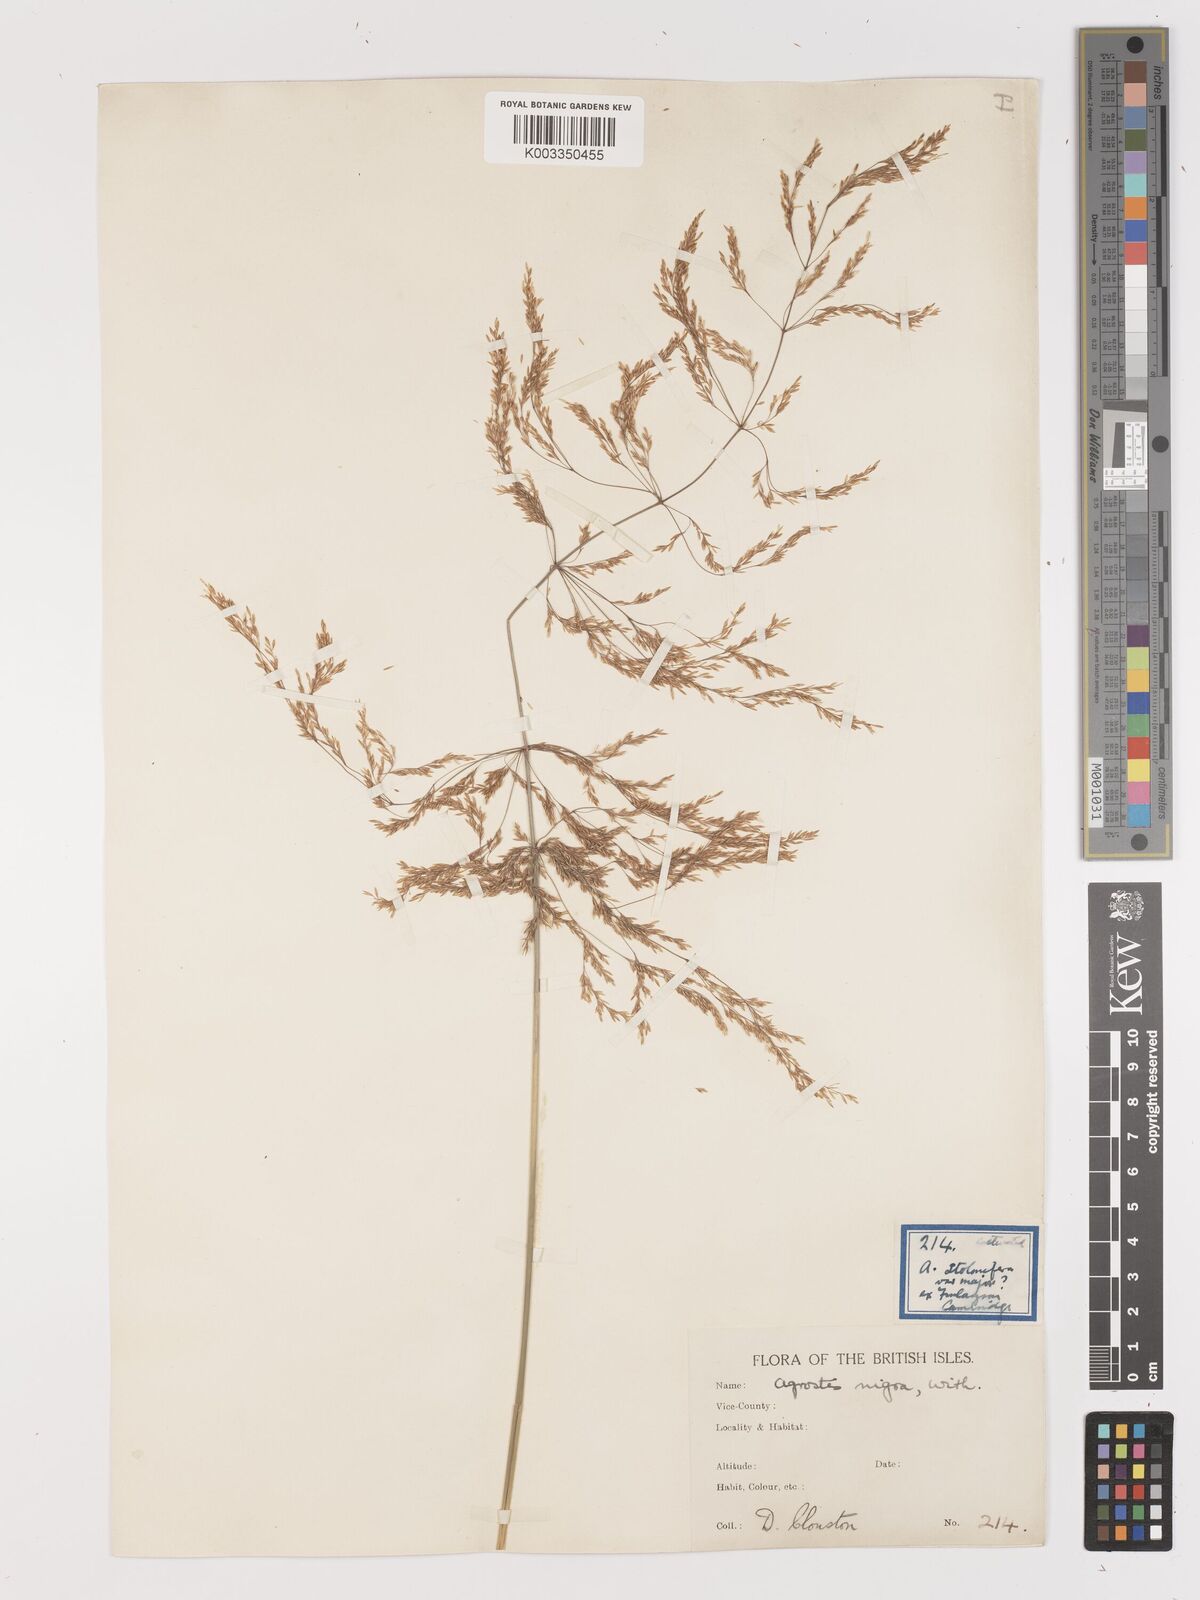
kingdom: Plantae
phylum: Tracheophyta
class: Liliopsida
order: Poales
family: Poaceae
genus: Agrostis
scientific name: Agrostis gigantea
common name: Black bent
